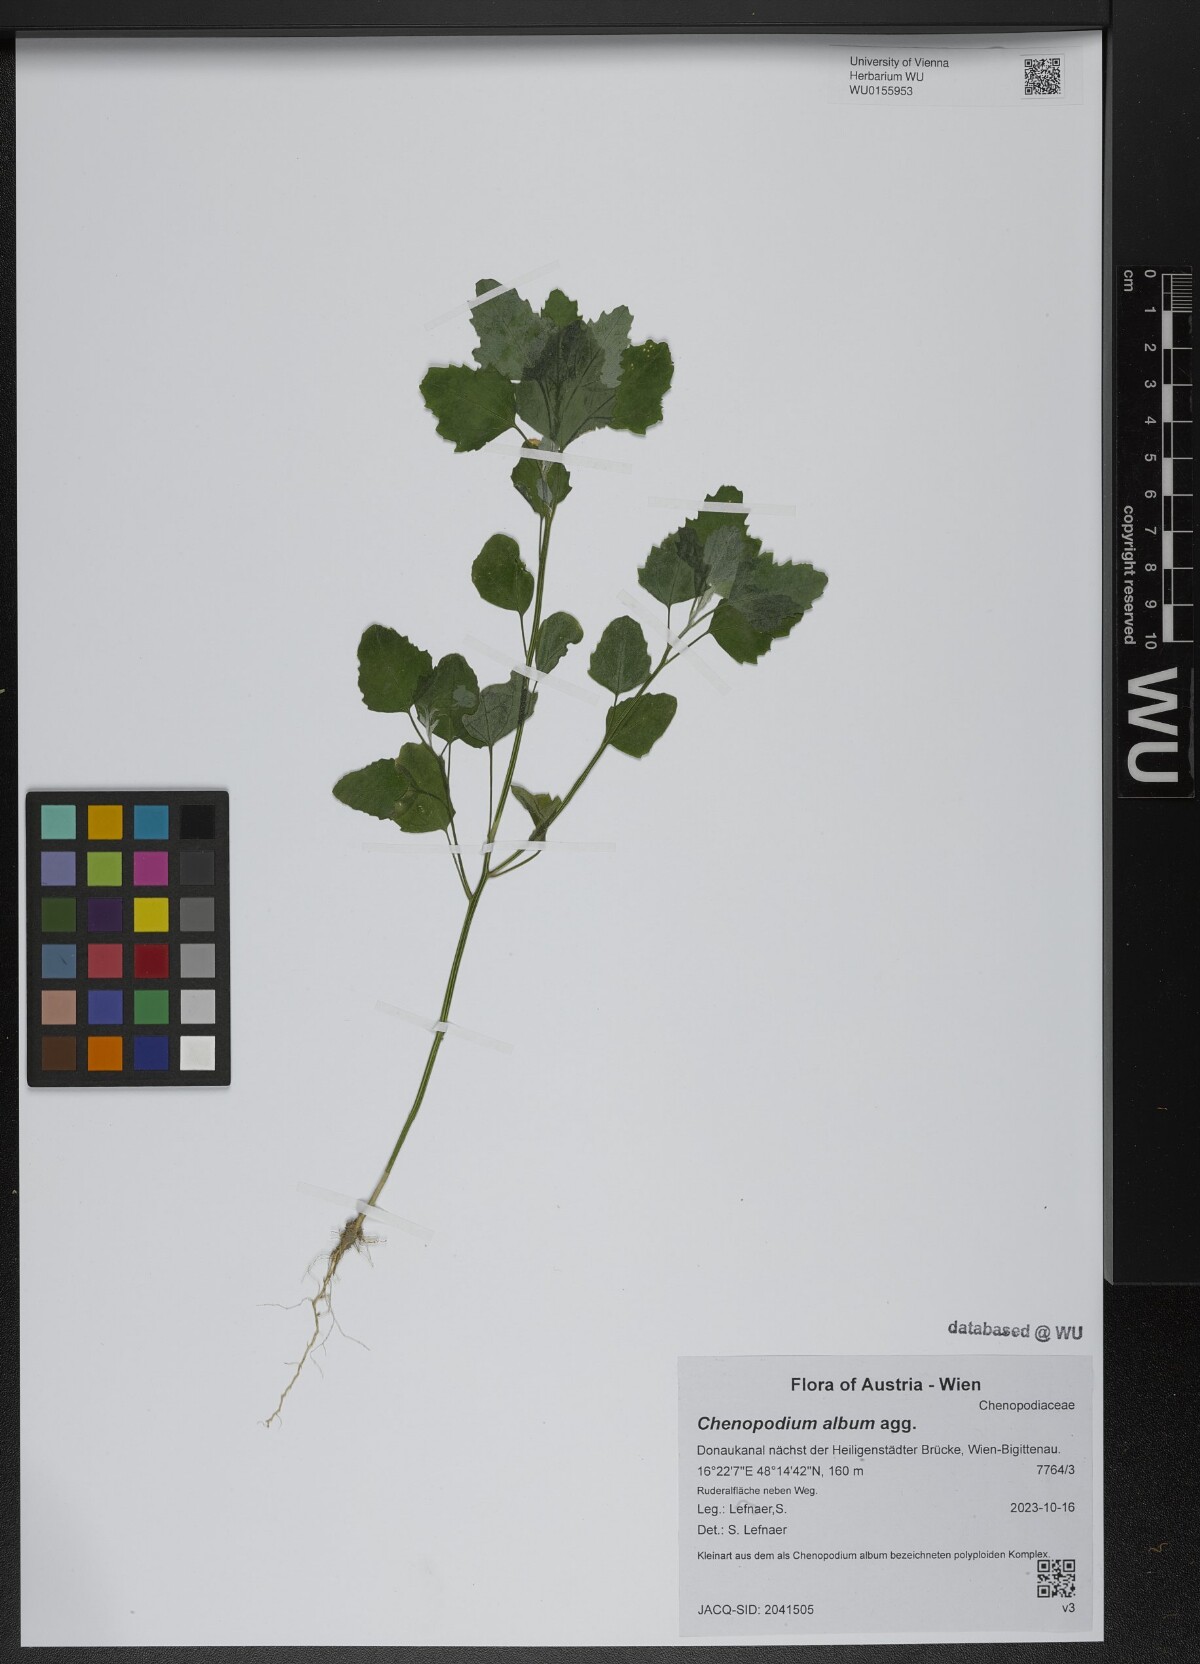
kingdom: Plantae
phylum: Tracheophyta
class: Magnoliopsida
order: Caryophyllales
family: Amaranthaceae
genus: Chenopodium
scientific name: Chenopodium album
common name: Fat-hen
